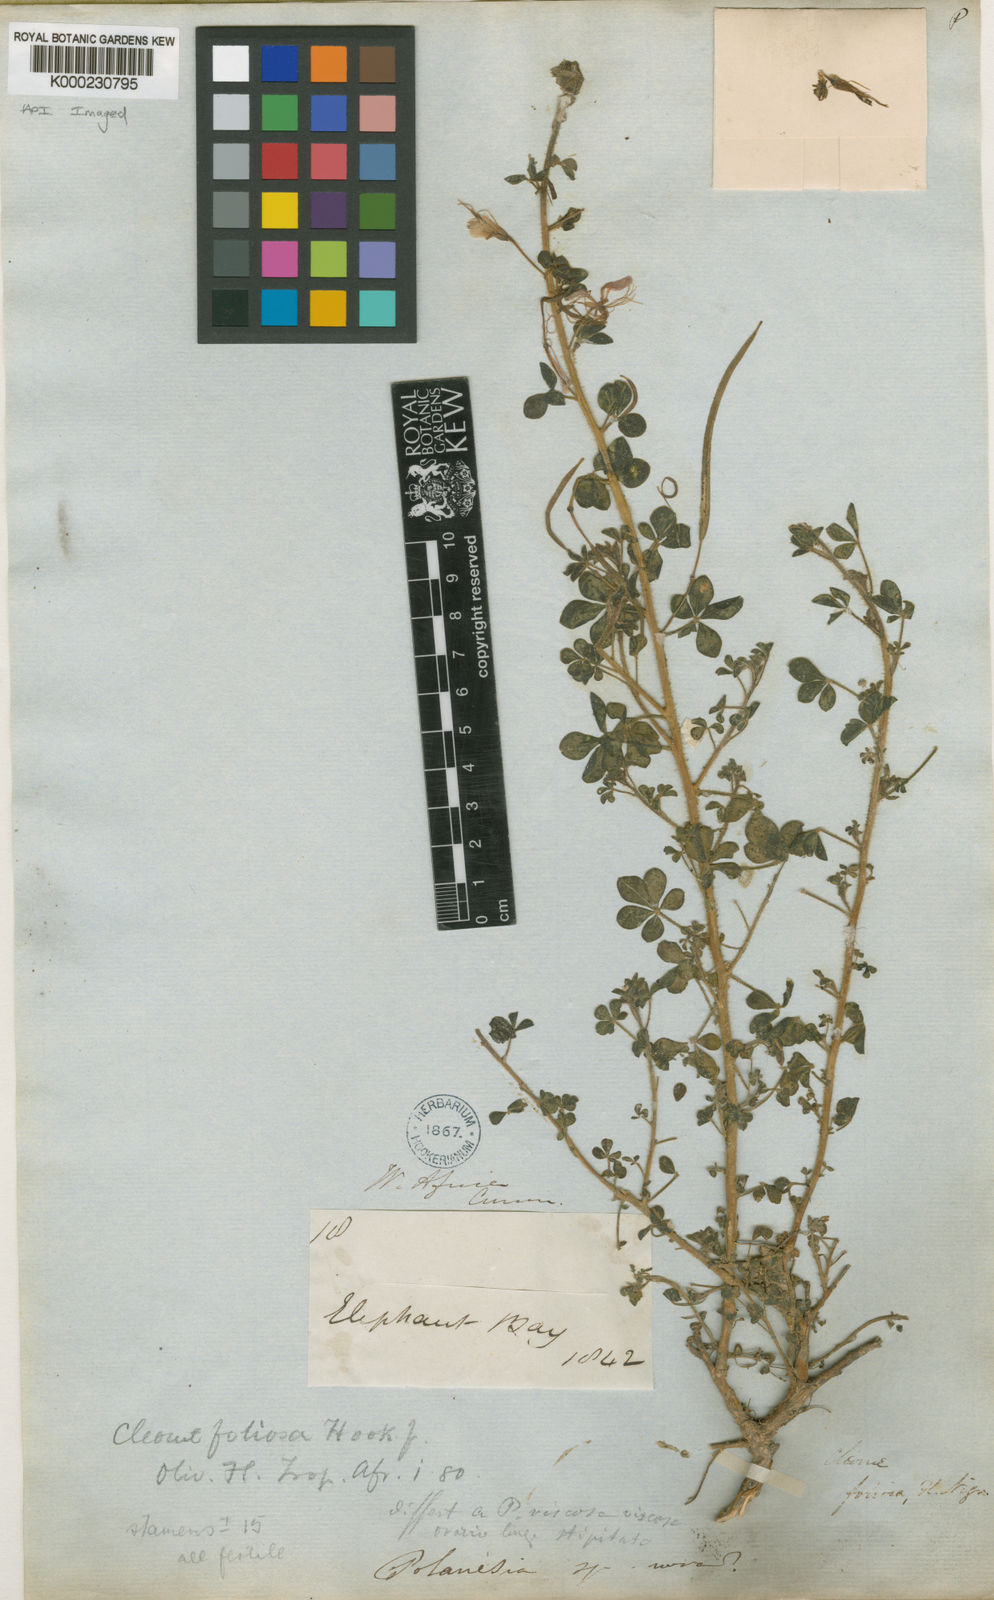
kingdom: Plantae
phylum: Tracheophyta
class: Magnoliopsida
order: Brassicales
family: Cleomaceae
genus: Kersia
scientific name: Kersia foliosa
